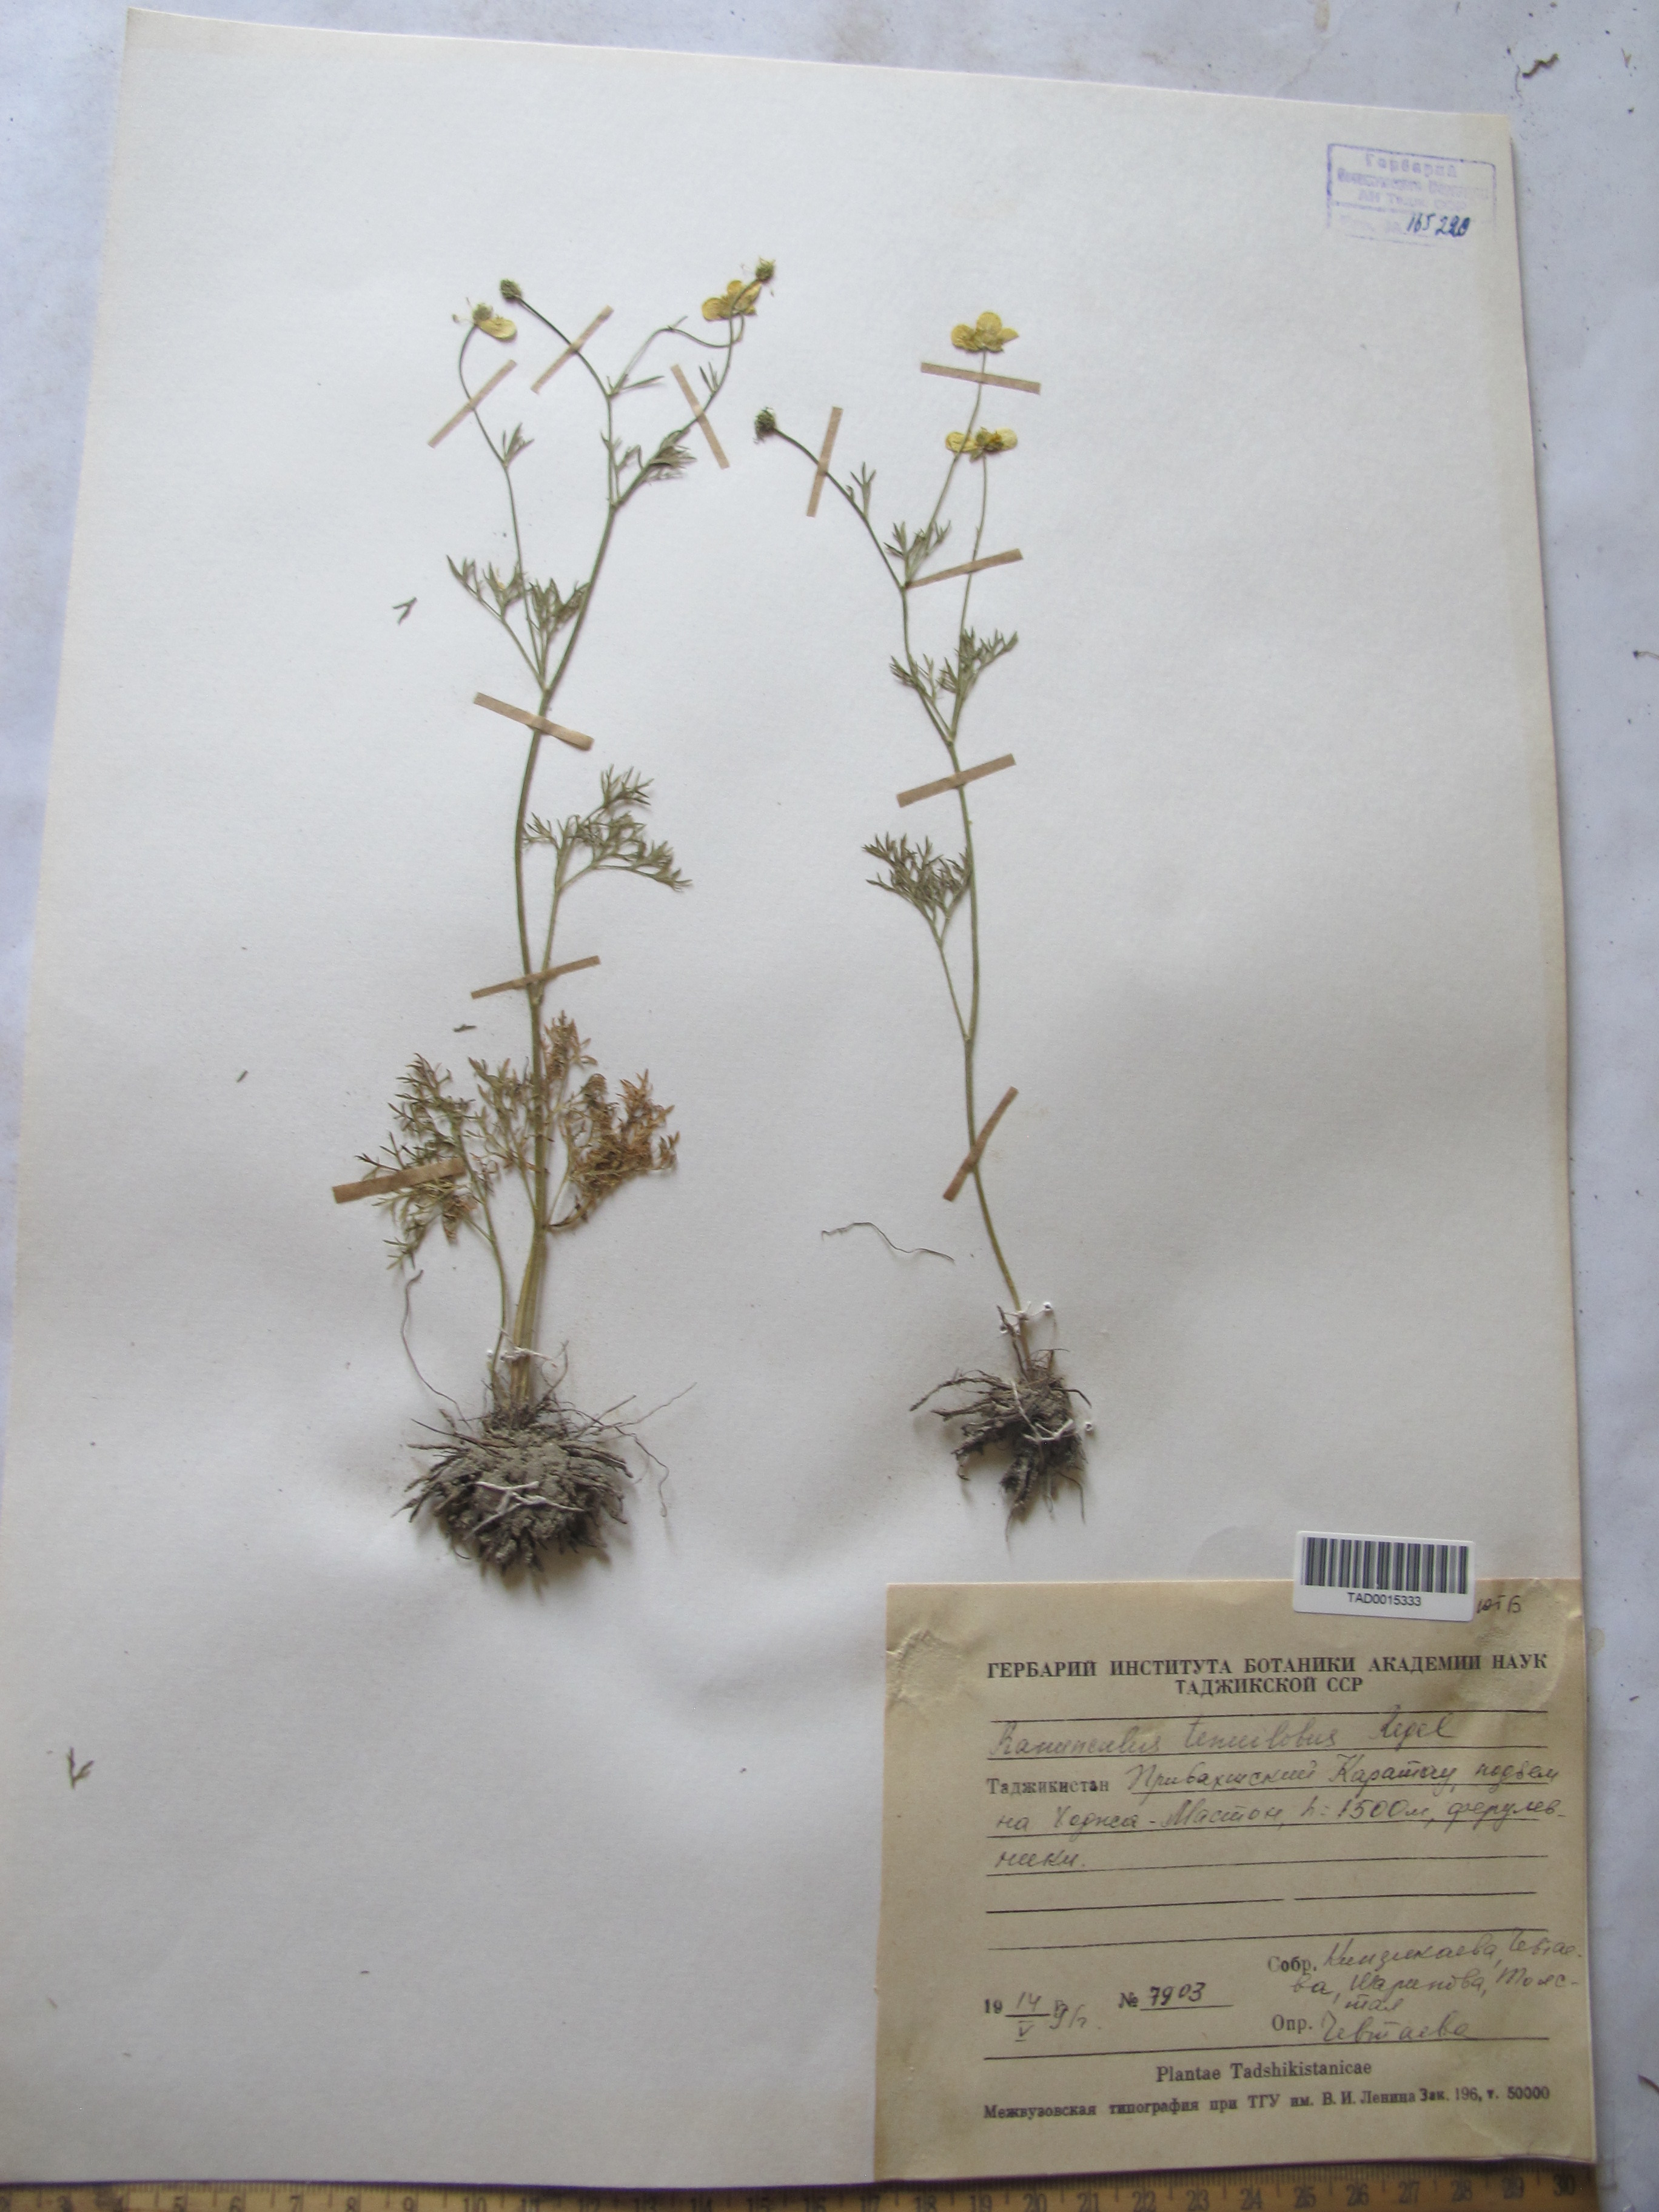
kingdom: Plantae
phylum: Tracheophyta
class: Magnoliopsida
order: Ranunculales
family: Ranunculaceae
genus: Ranunculus
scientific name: Ranunculus tenuilobus
